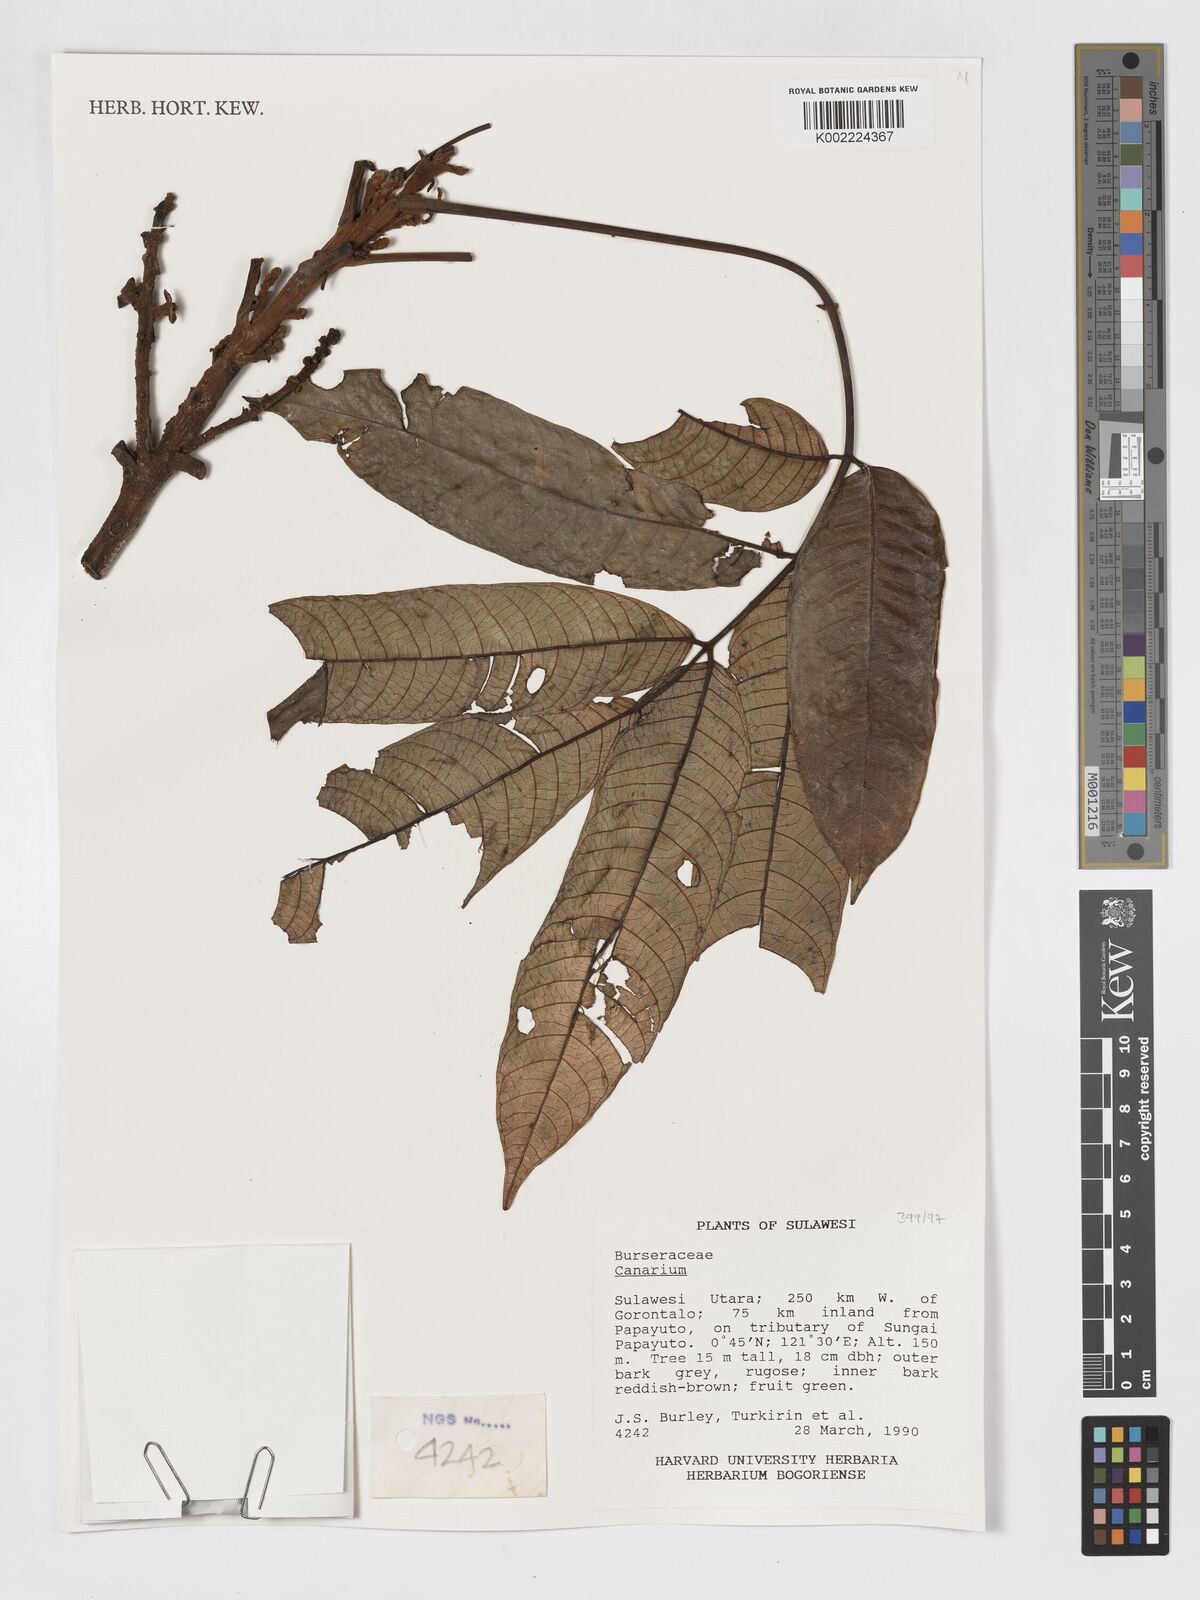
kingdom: Plantae
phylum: Tracheophyta
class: Magnoliopsida
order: Sapindales
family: Burseraceae
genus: Canarium
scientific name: Canarium
